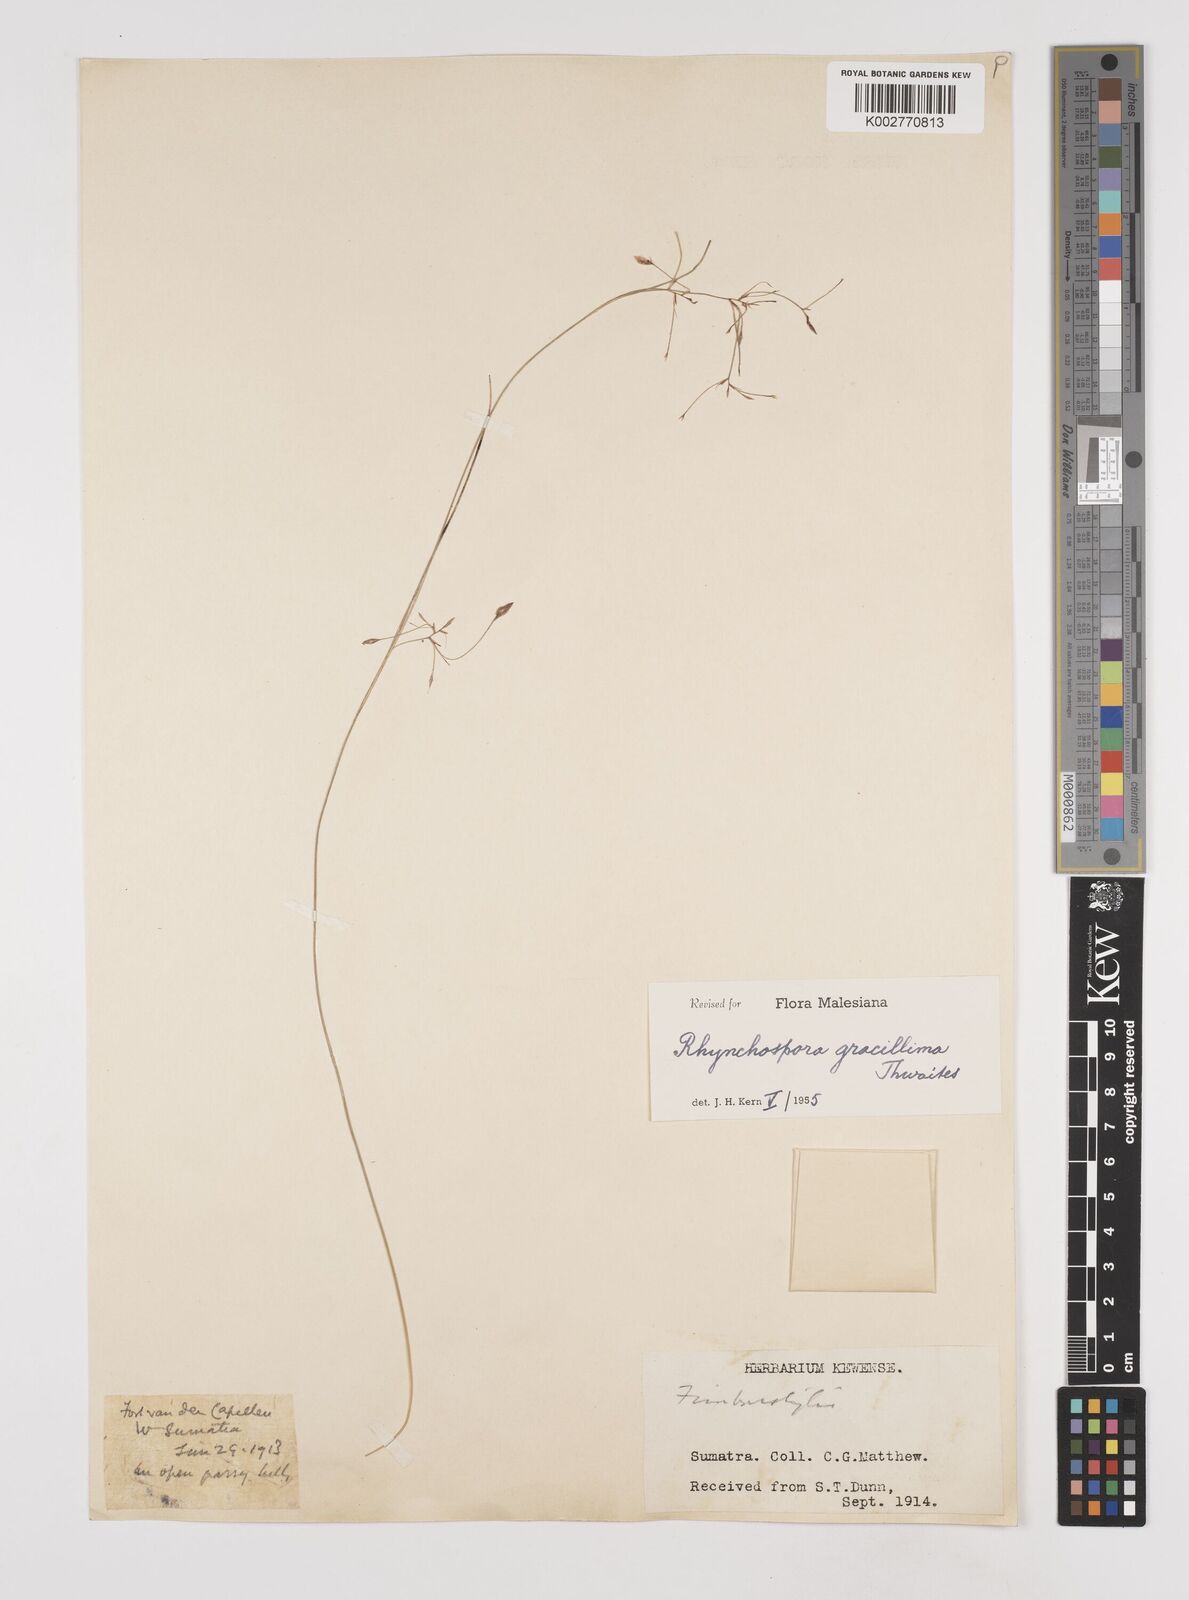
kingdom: Plantae
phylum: Tracheophyta
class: Liliopsida
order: Poales
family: Cyperaceae
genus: Rhynchospora
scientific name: Rhynchospora gracillima
